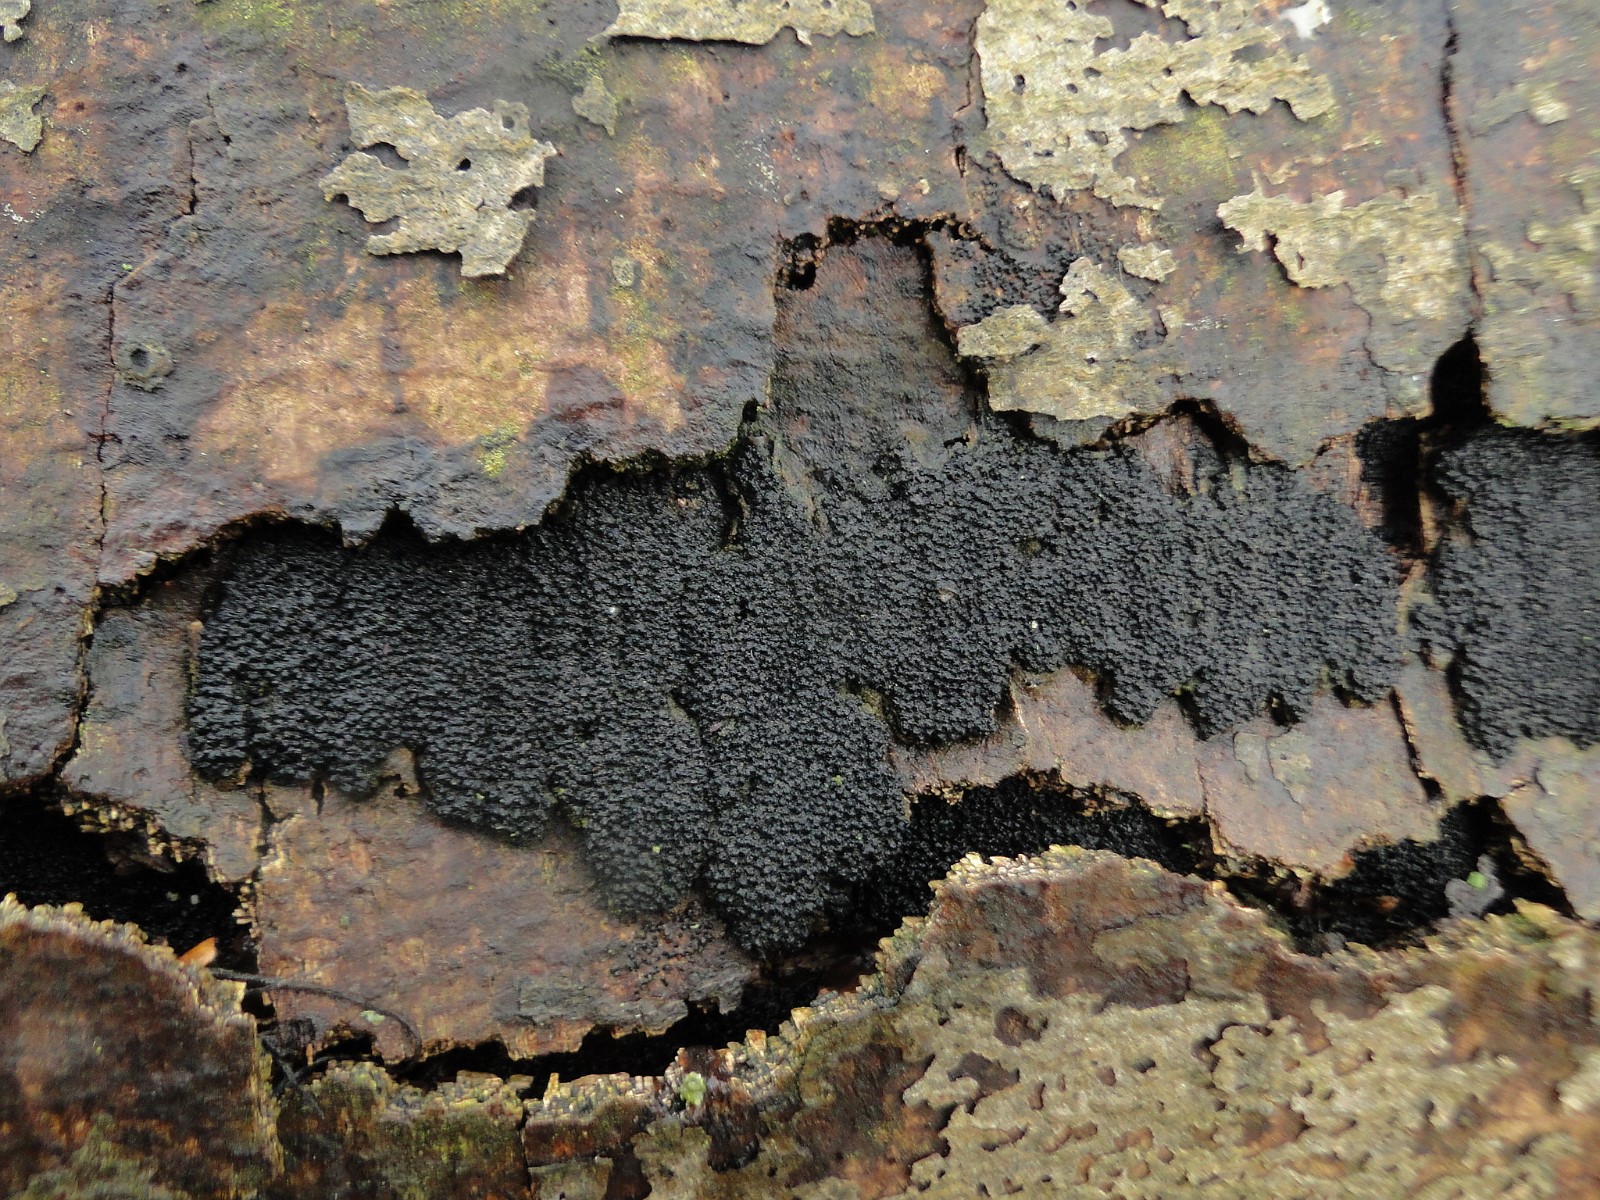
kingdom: Fungi
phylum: Ascomycota
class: Sordariomycetes
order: Xylariales
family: Diatrypaceae
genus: Eutypa
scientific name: Eutypa spinosa
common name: grov kulskorpe
